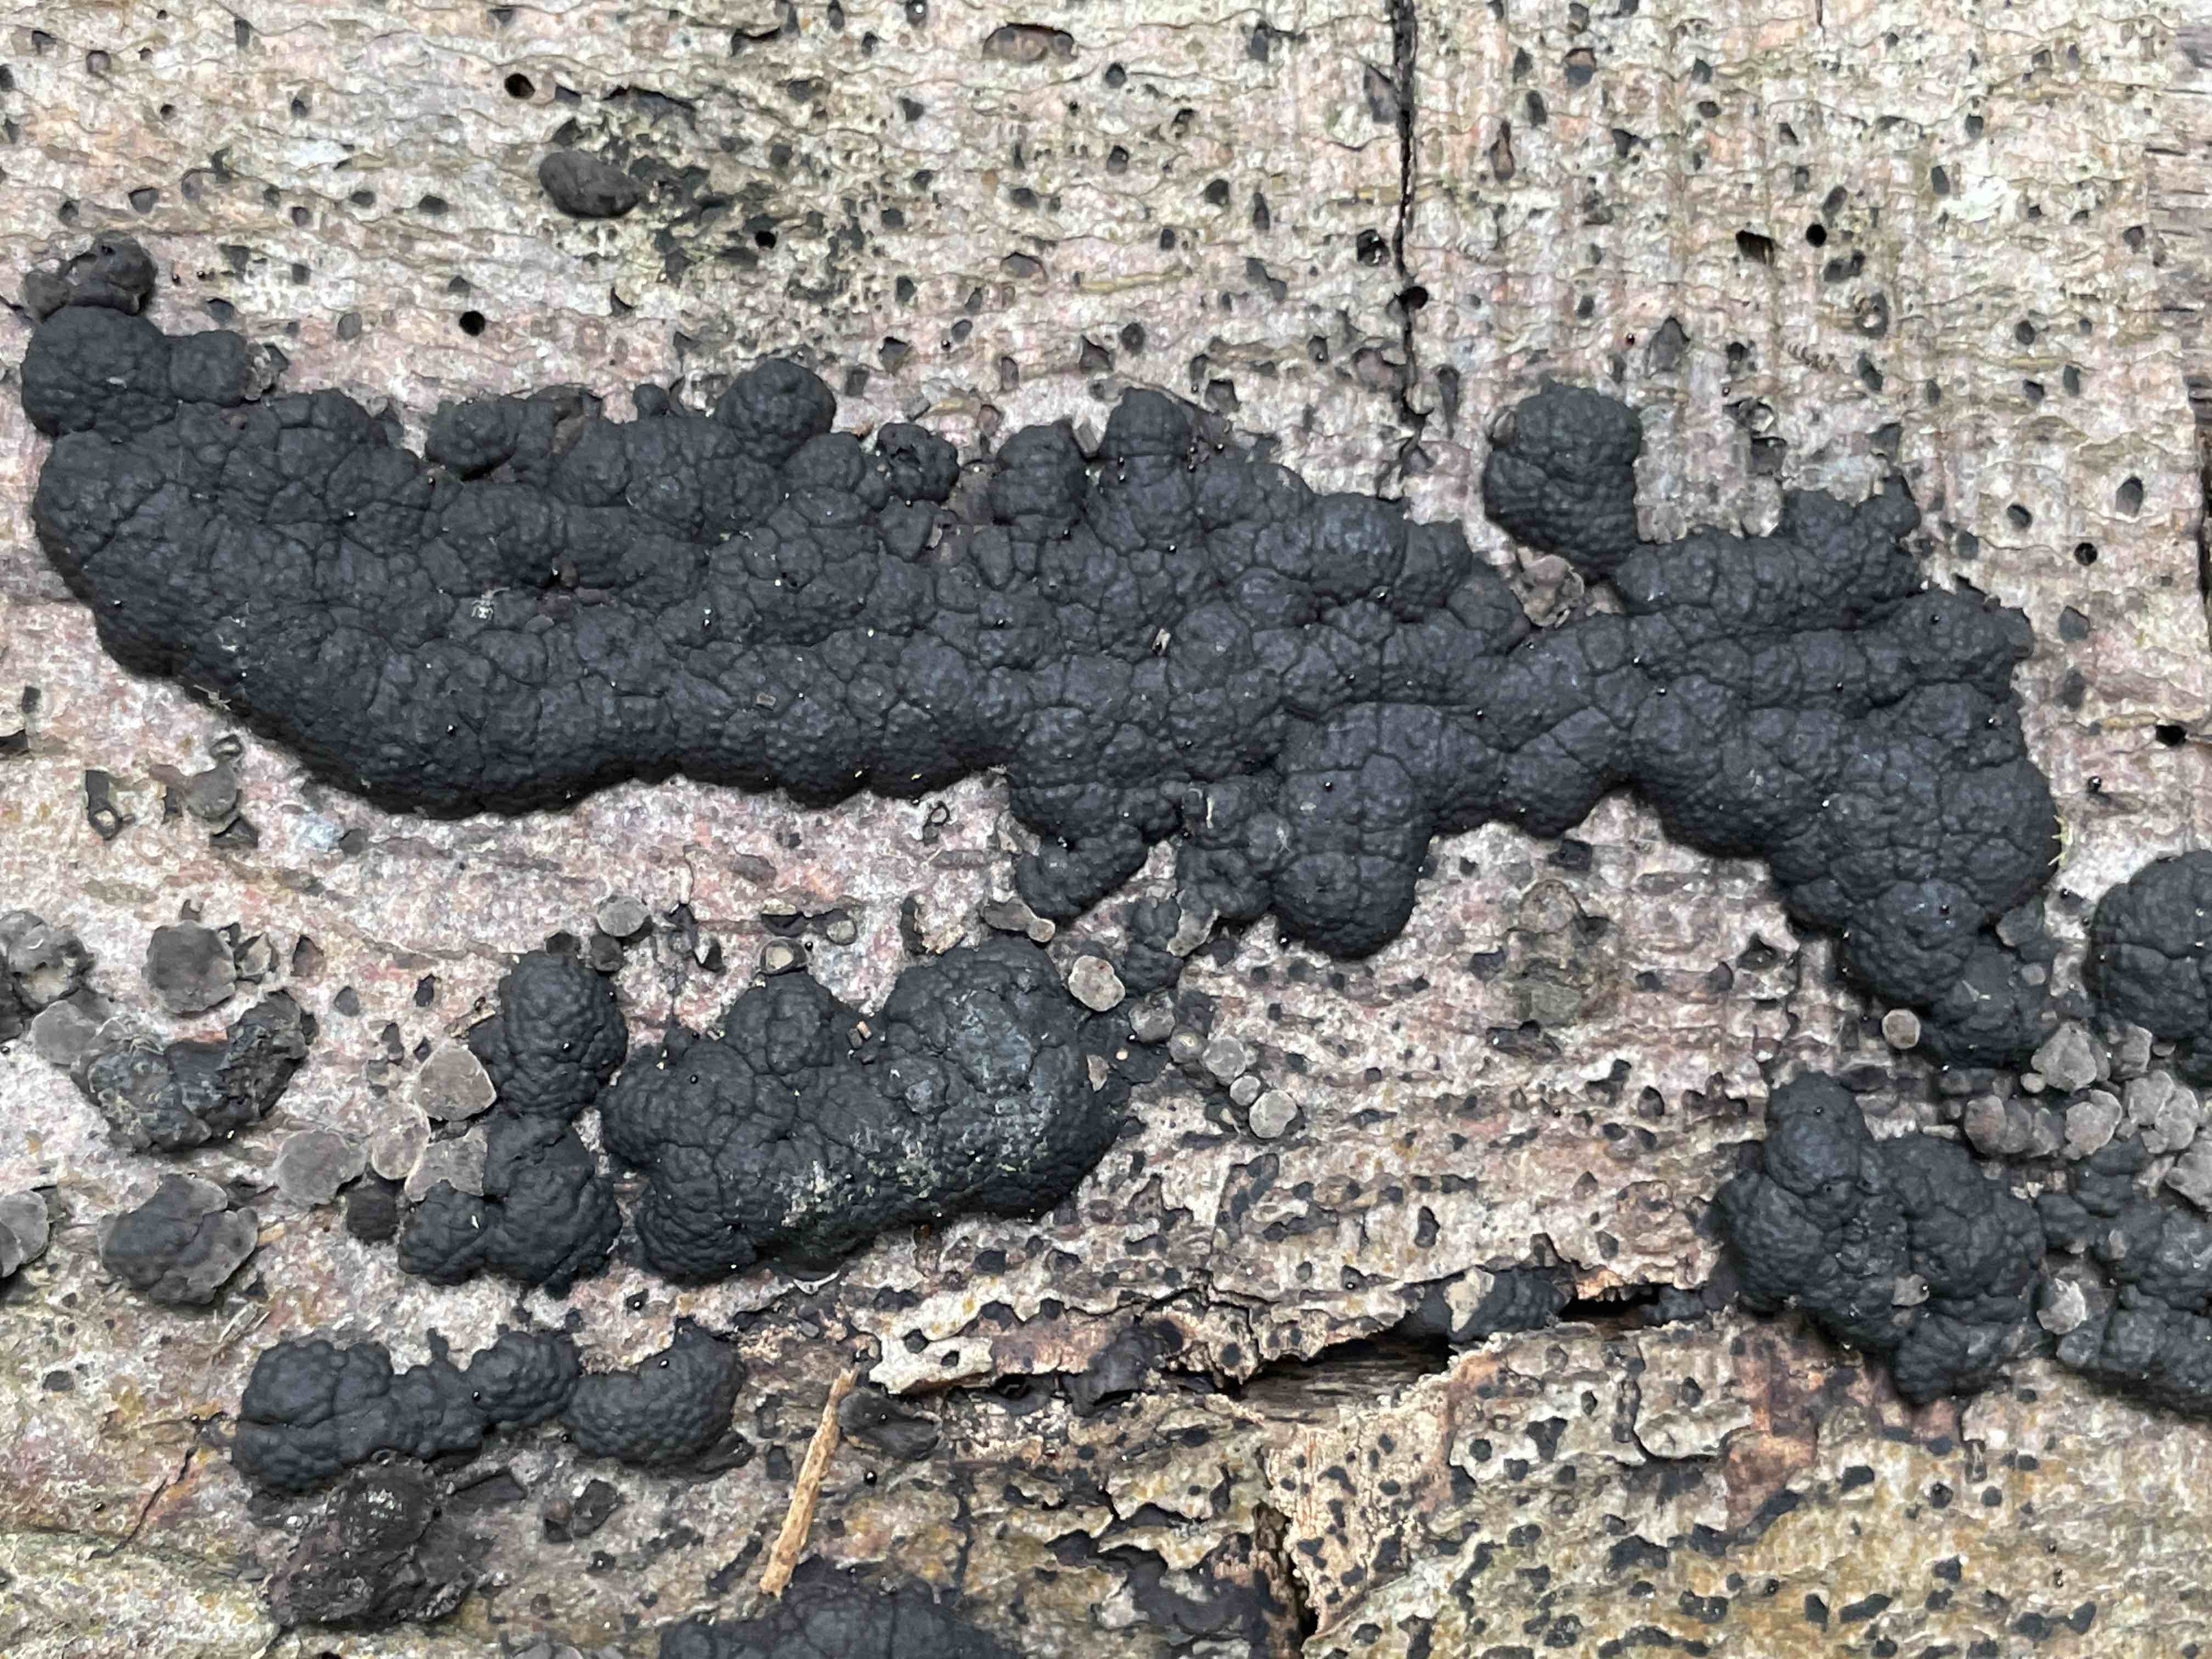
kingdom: Fungi
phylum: Ascomycota
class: Sordariomycetes
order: Xylariales
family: Hypoxylaceae
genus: Jackrogersella
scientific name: Jackrogersella cohaerens
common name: sammenflydende kulbær
